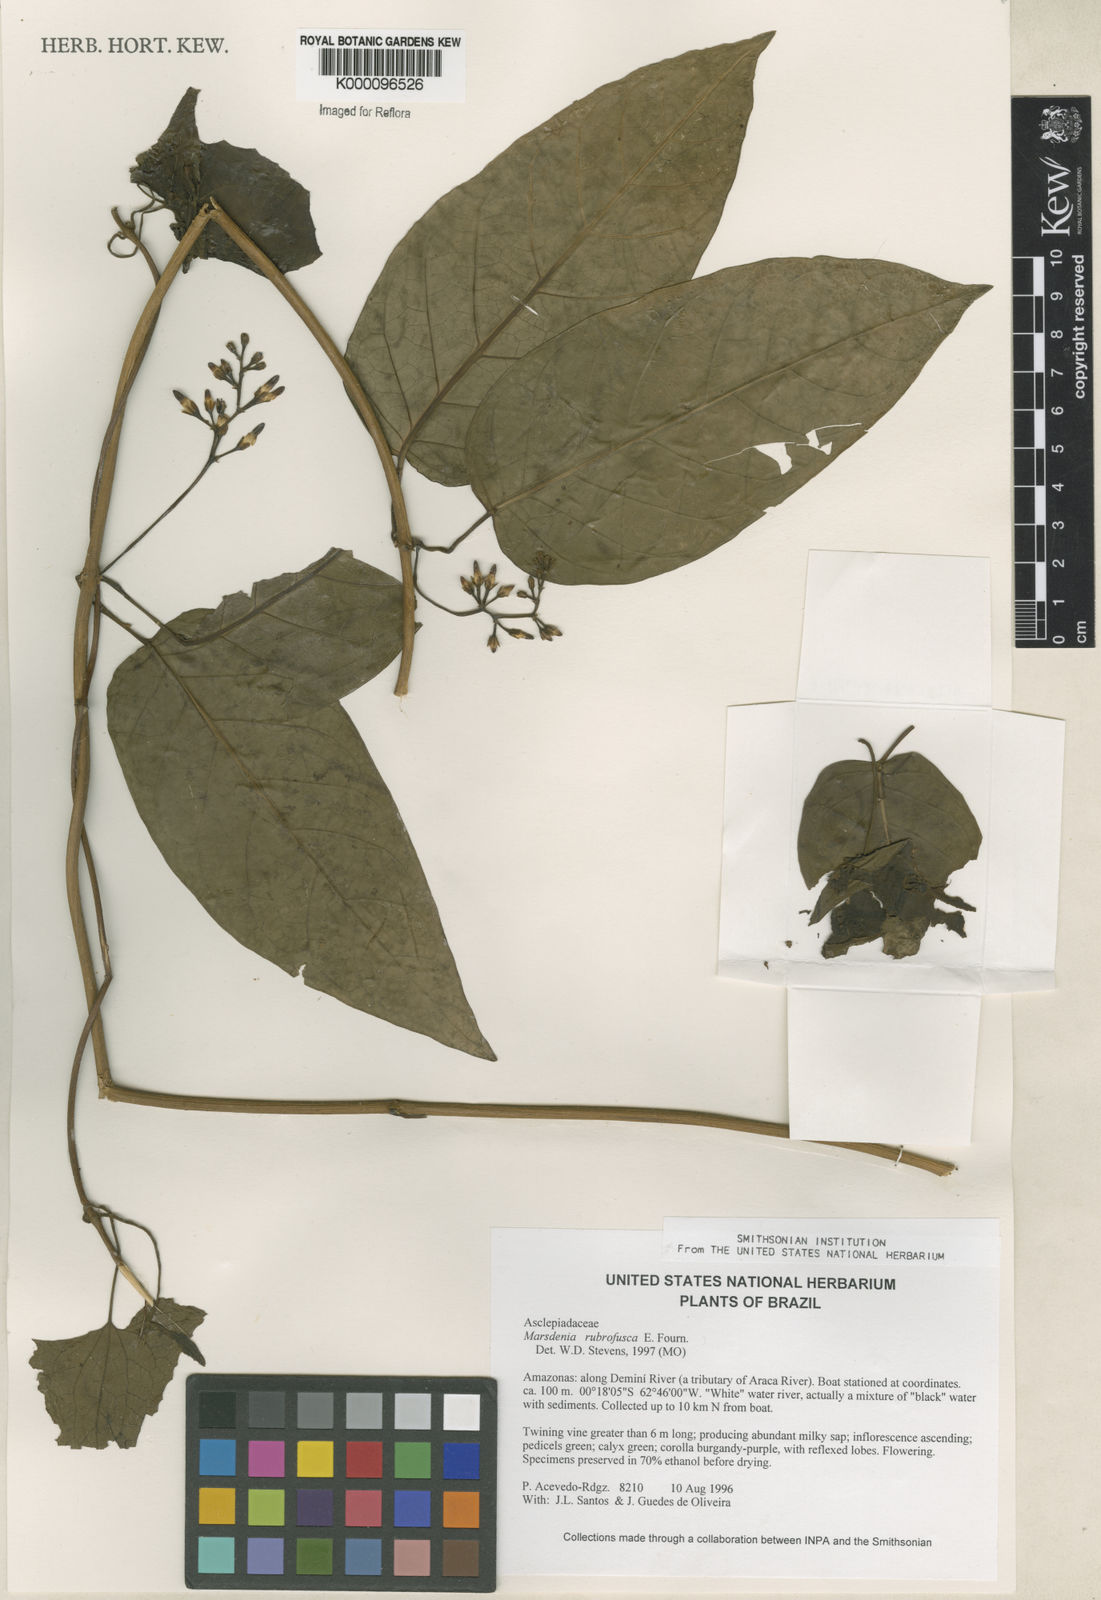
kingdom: Plantae
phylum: Tracheophyta
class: Magnoliopsida
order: Gentianales
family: Apocynaceae
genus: Ruehssia
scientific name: Ruehssia rubrofusca
